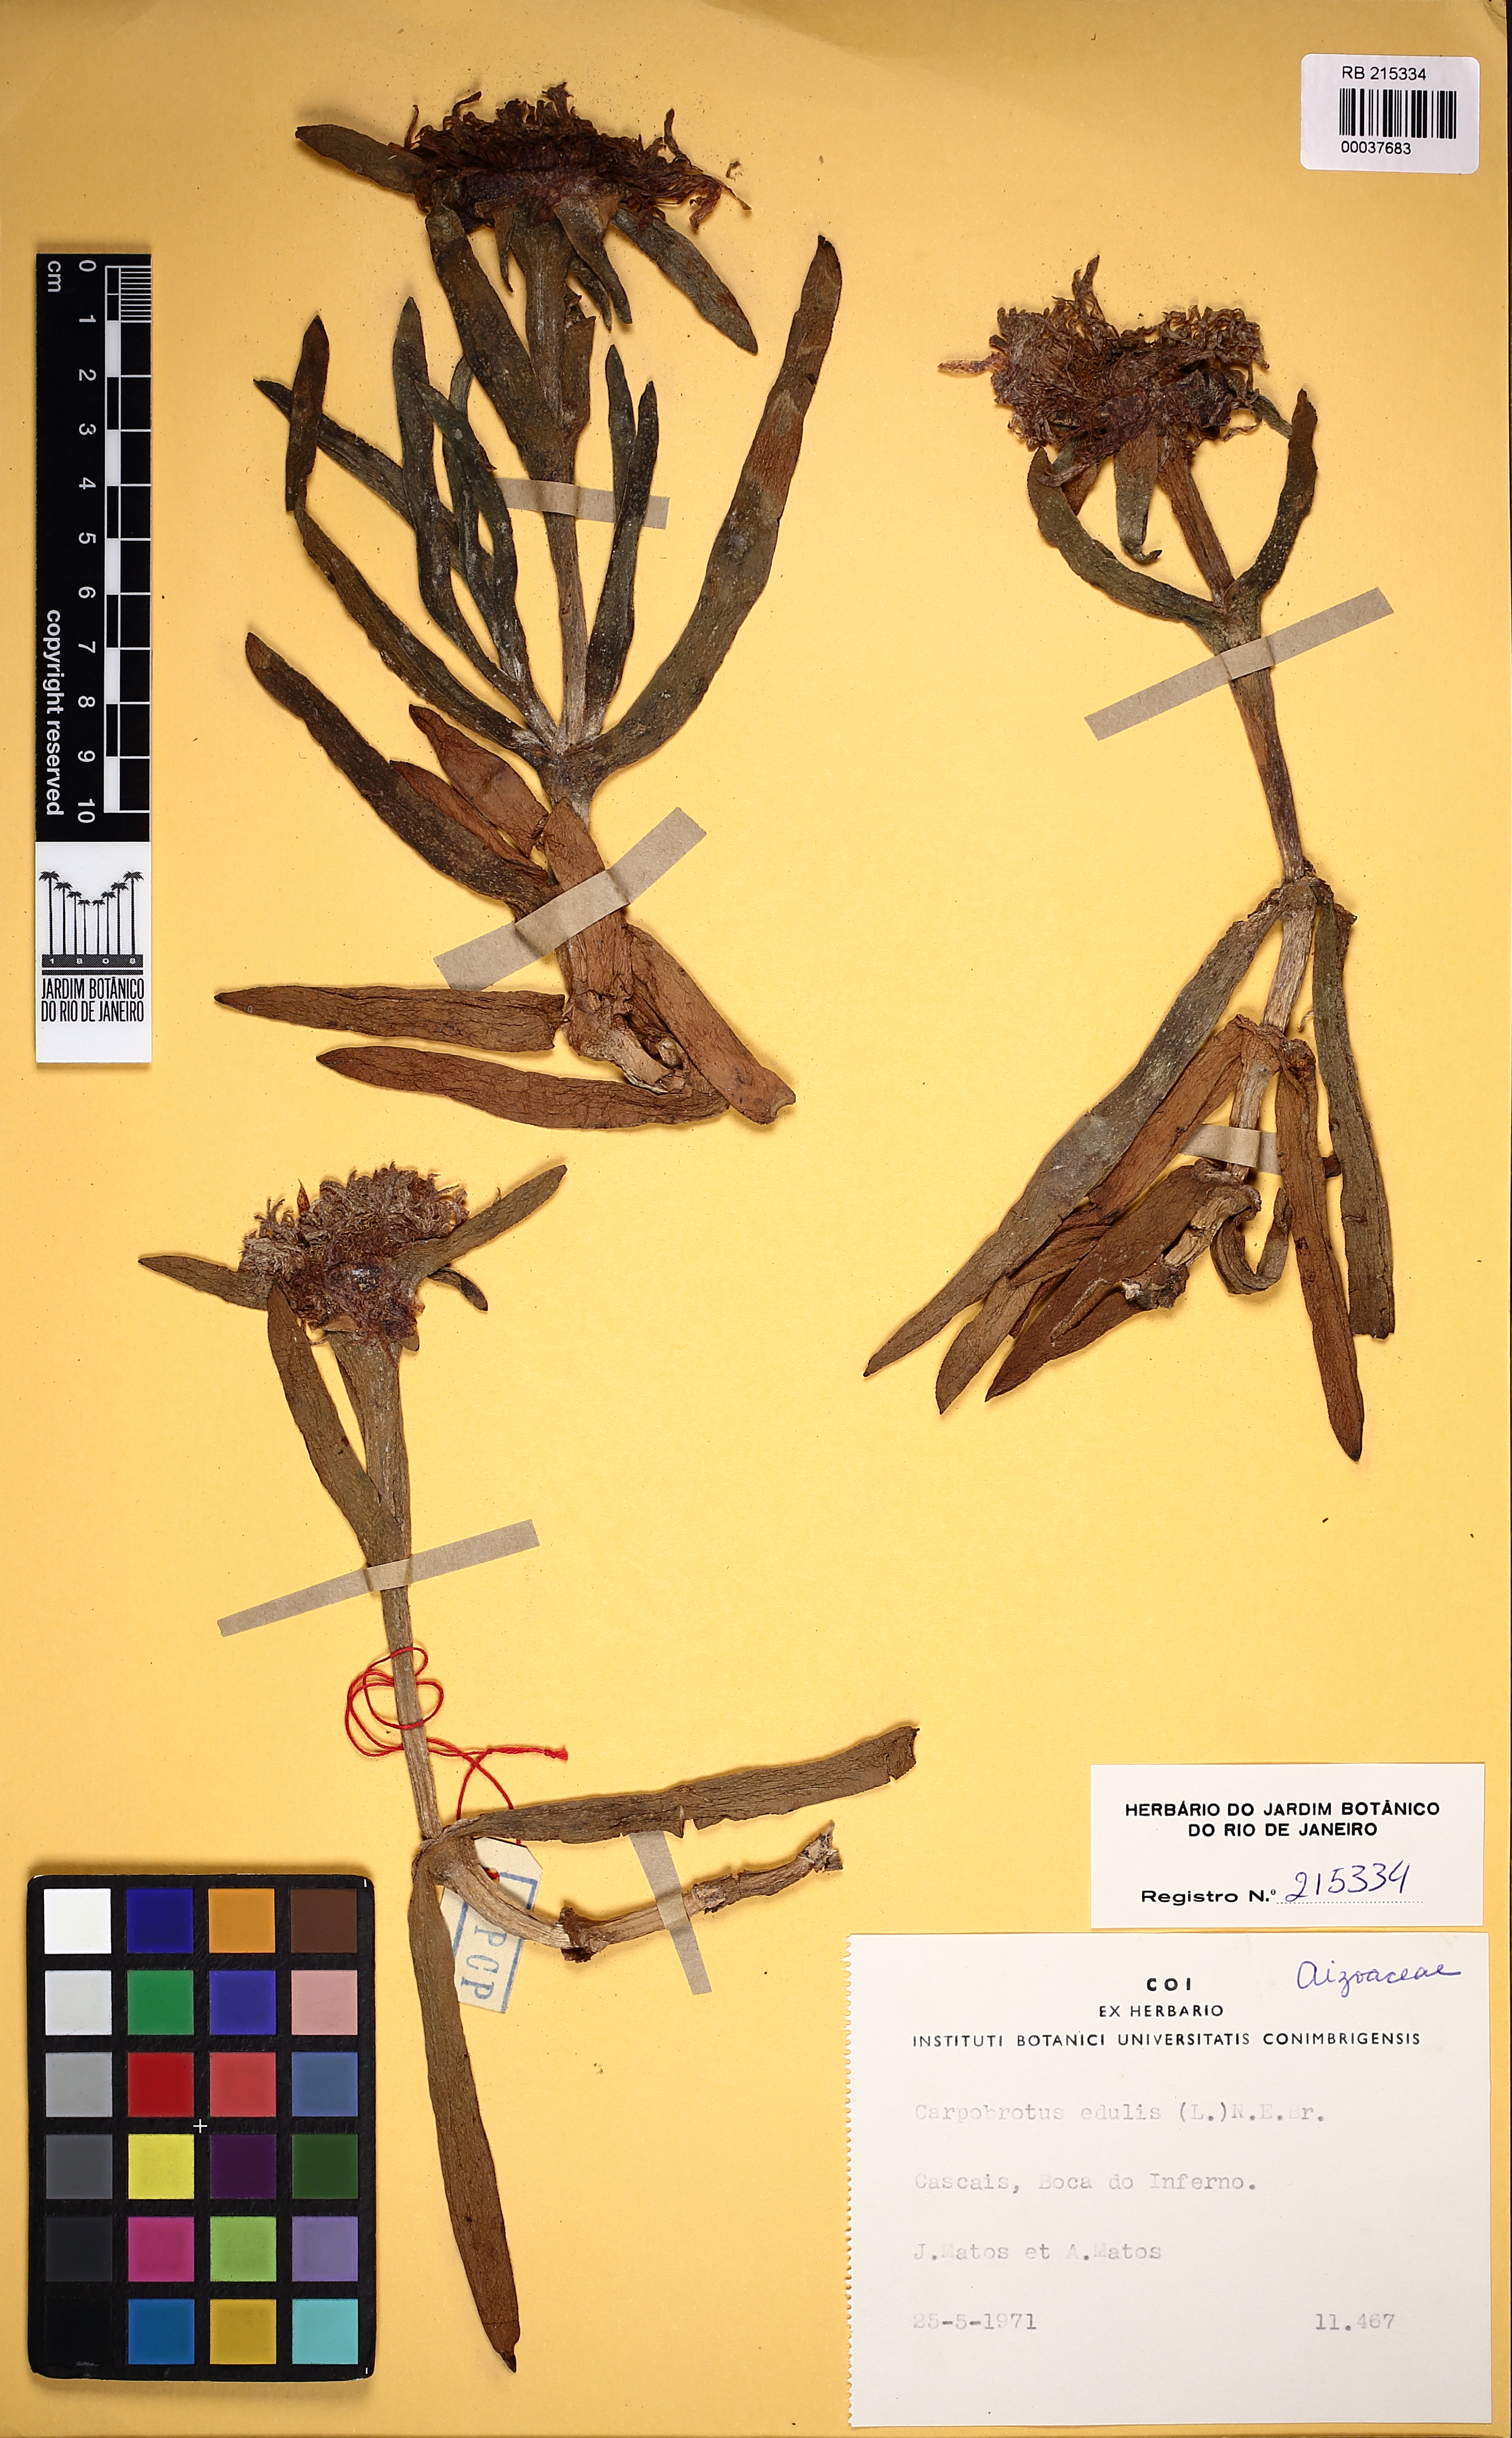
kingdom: Plantae
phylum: Tracheophyta
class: Magnoliopsida
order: Caryophyllales
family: Aizoaceae
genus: Carpobrotus
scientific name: Carpobrotus edulis
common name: Hottentot-fig
